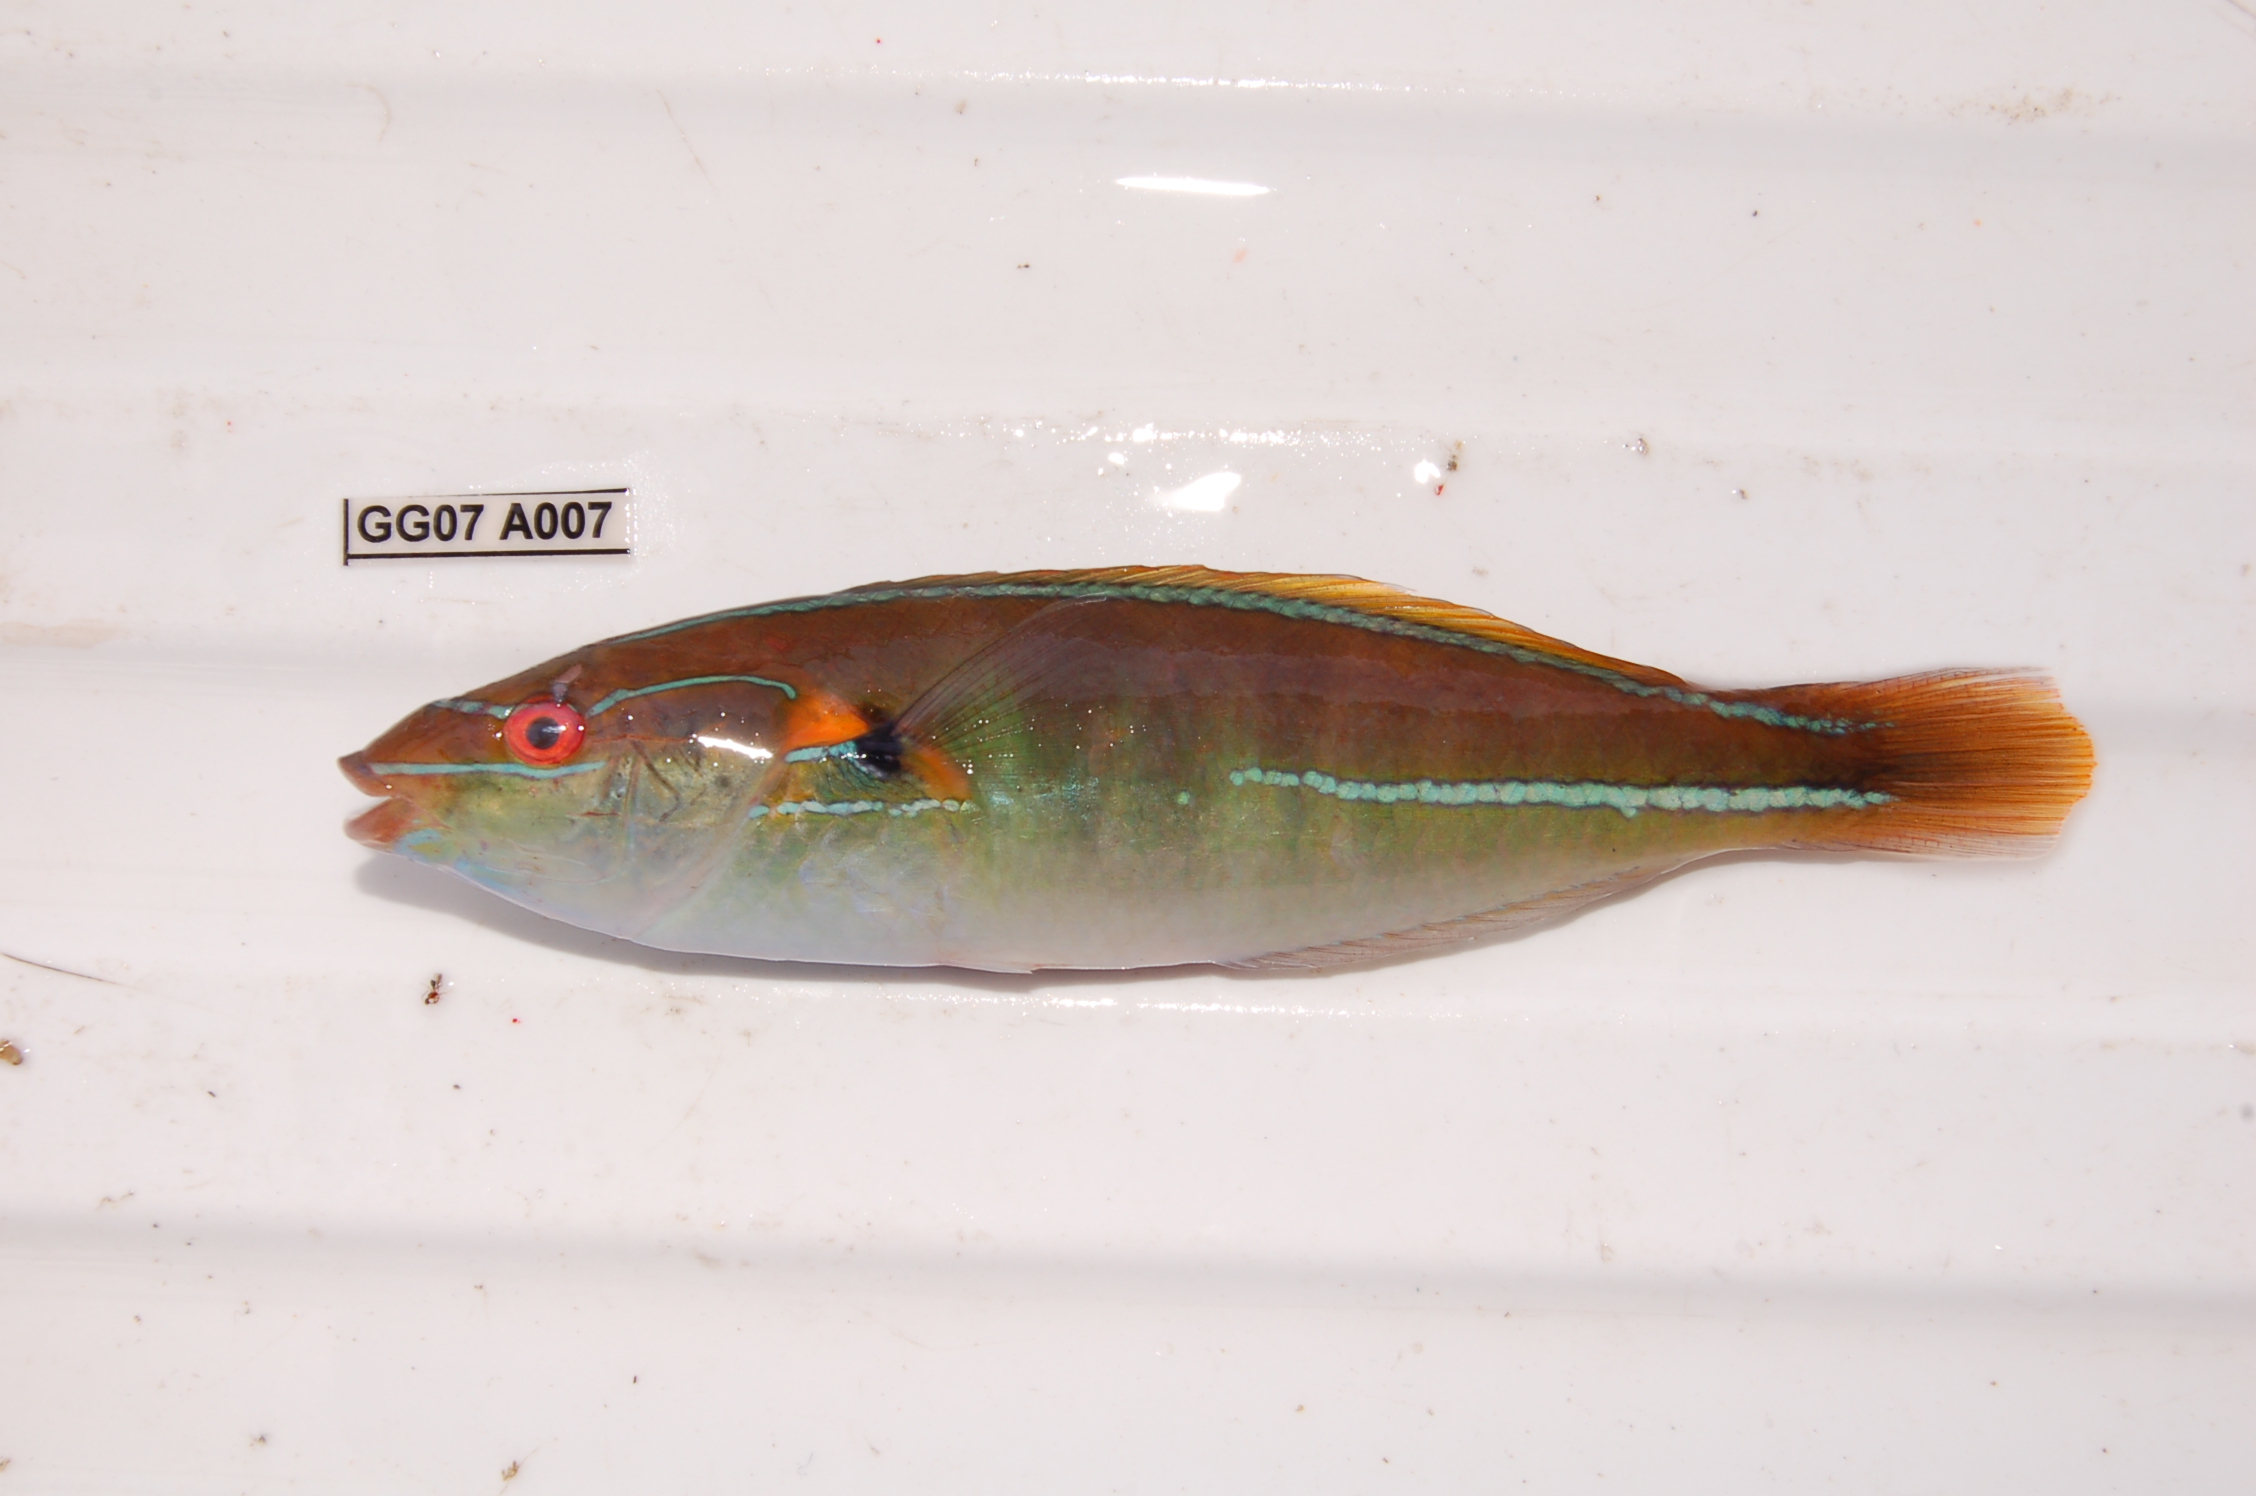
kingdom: Animalia
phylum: Chordata
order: Perciformes
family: Labridae
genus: Stethojulis
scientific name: Stethojulis interrupta
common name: Cutribbon wrasse
